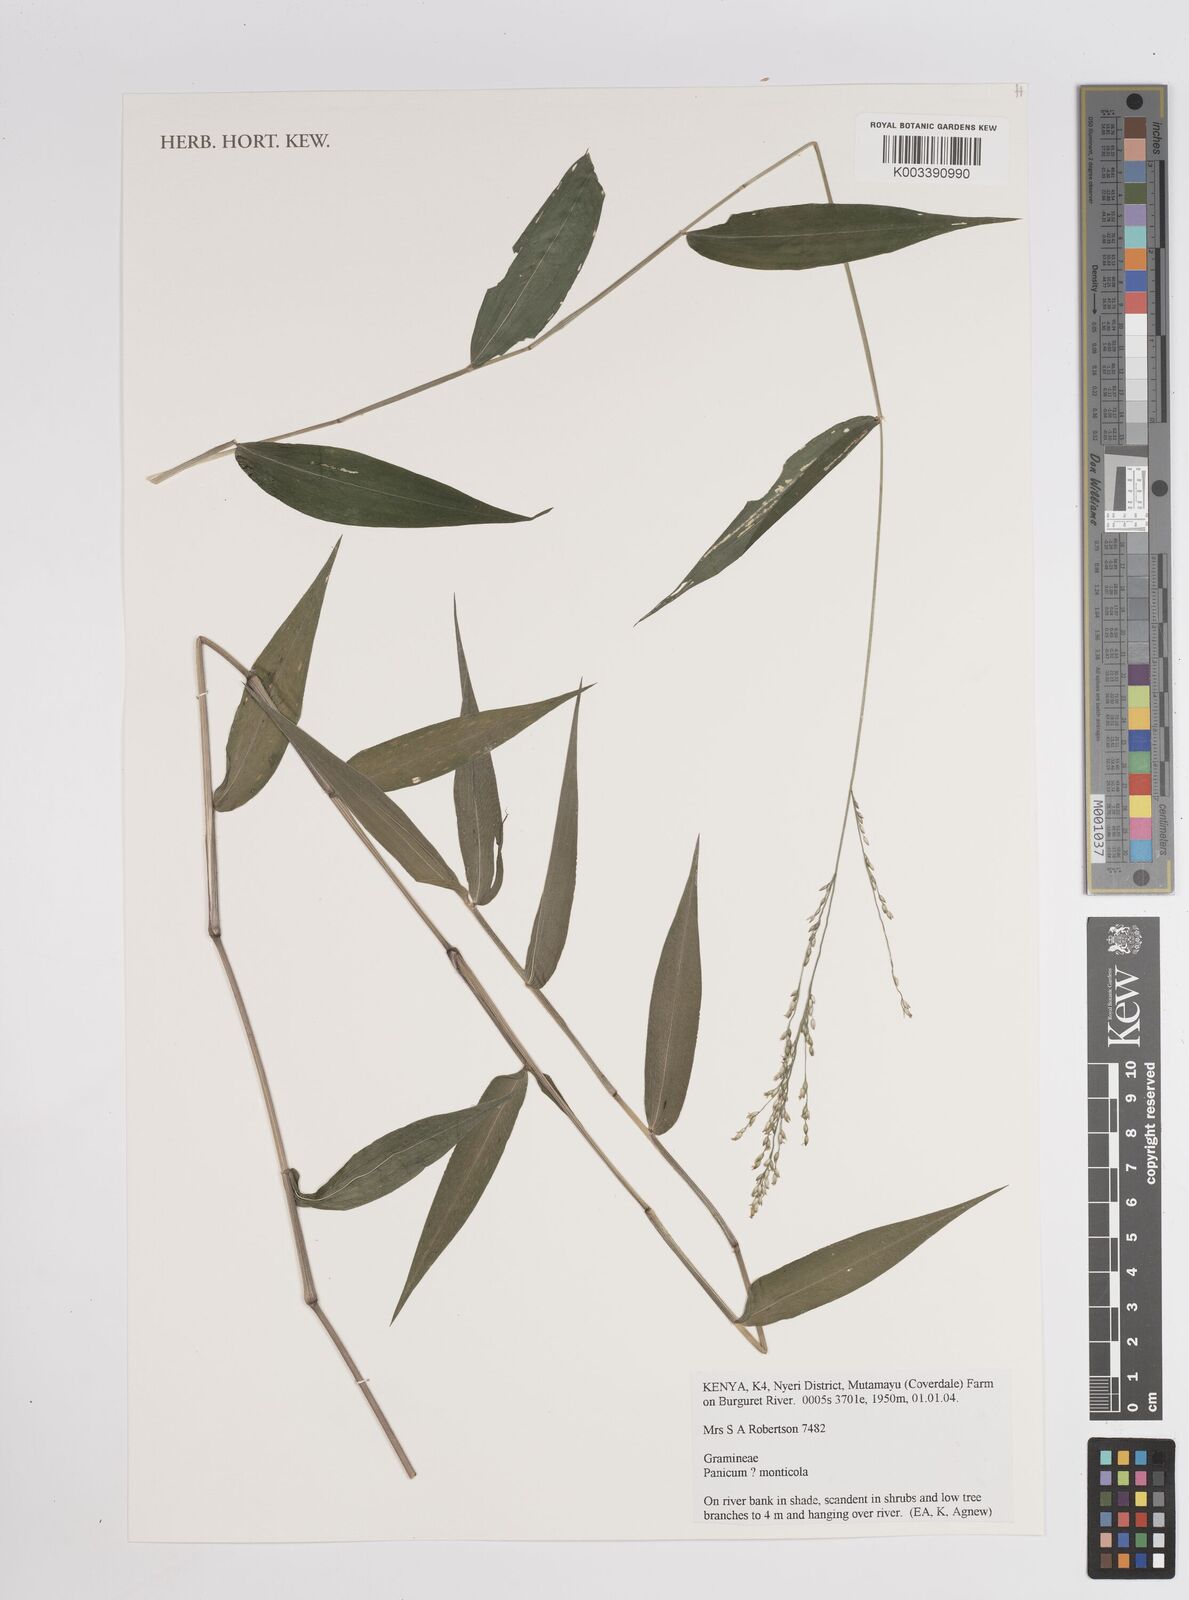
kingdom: Plantae
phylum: Tracheophyta
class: Liliopsida
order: Poales
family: Poaceae
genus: Panicum
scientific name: Panicum monticola
